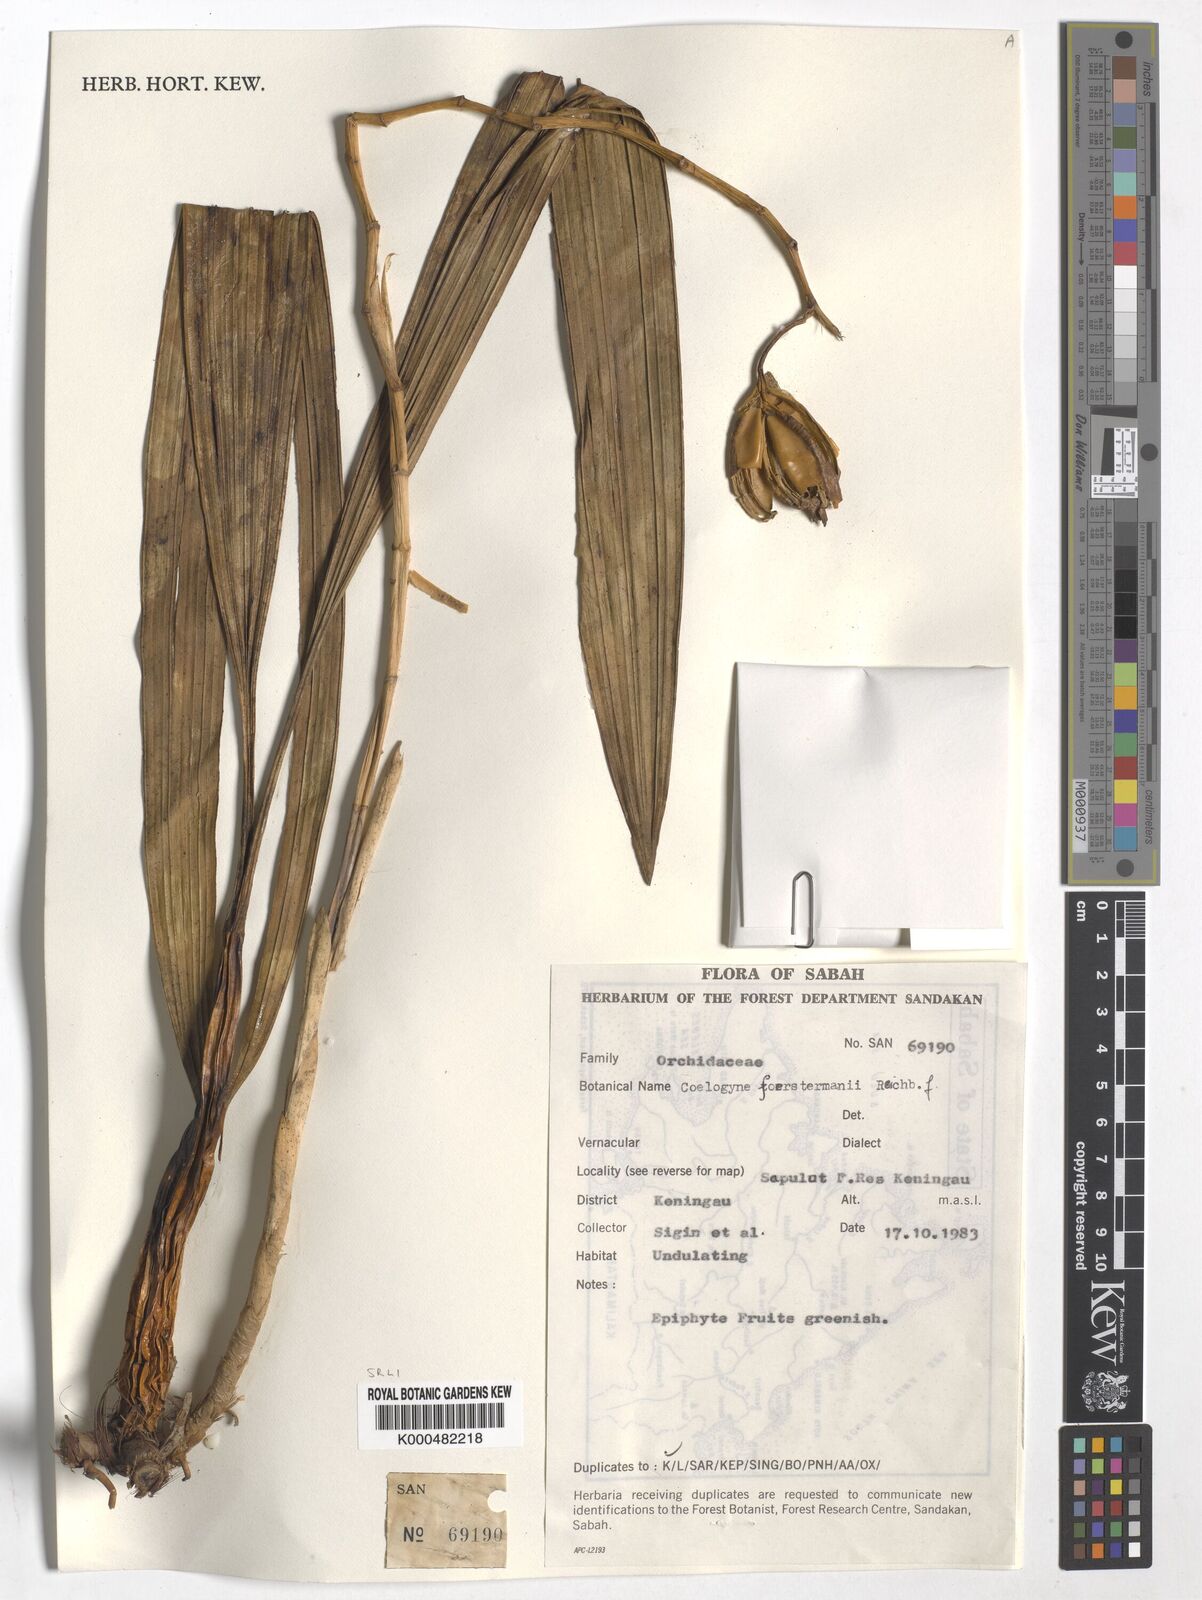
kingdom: Plantae
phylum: Tracheophyta
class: Liliopsida
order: Asparagales
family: Orchidaceae
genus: Coelogyne
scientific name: Coelogyne
